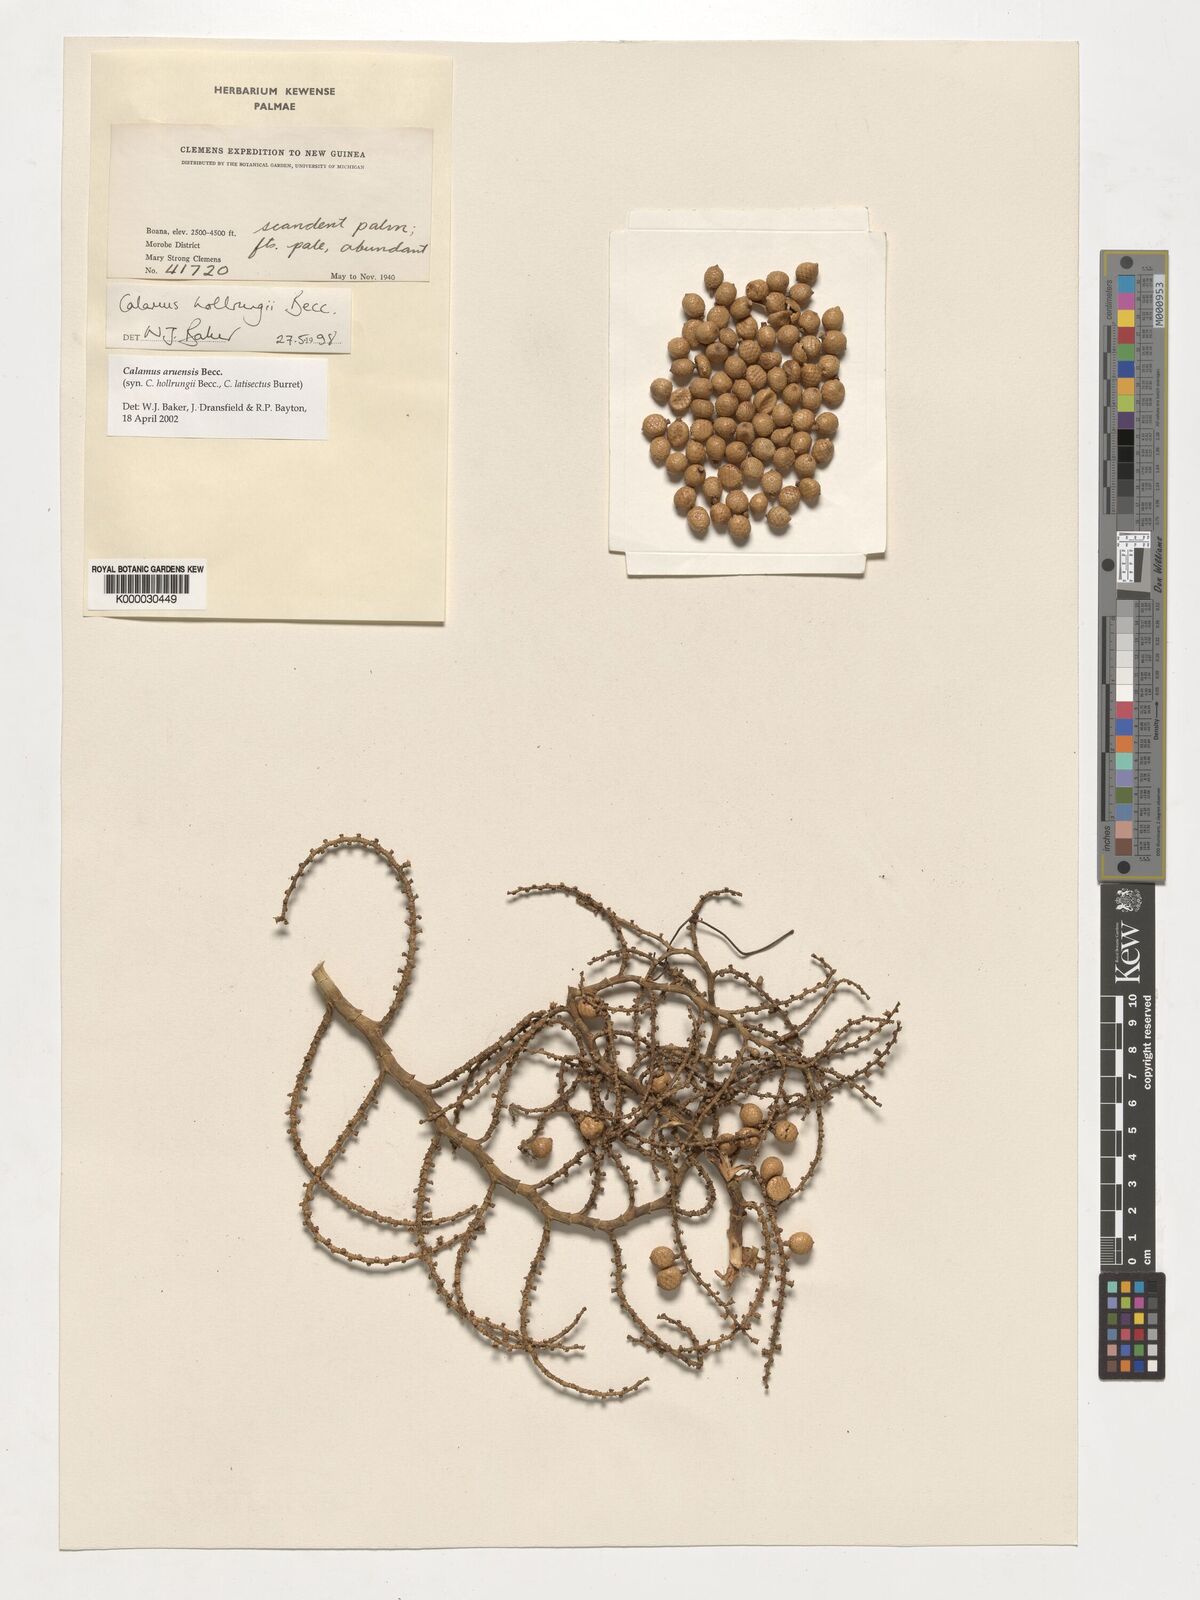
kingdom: Plantae
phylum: Tracheophyta
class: Liliopsida
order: Arecales
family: Arecaceae
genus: Calamus
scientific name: Calamus aruensis
